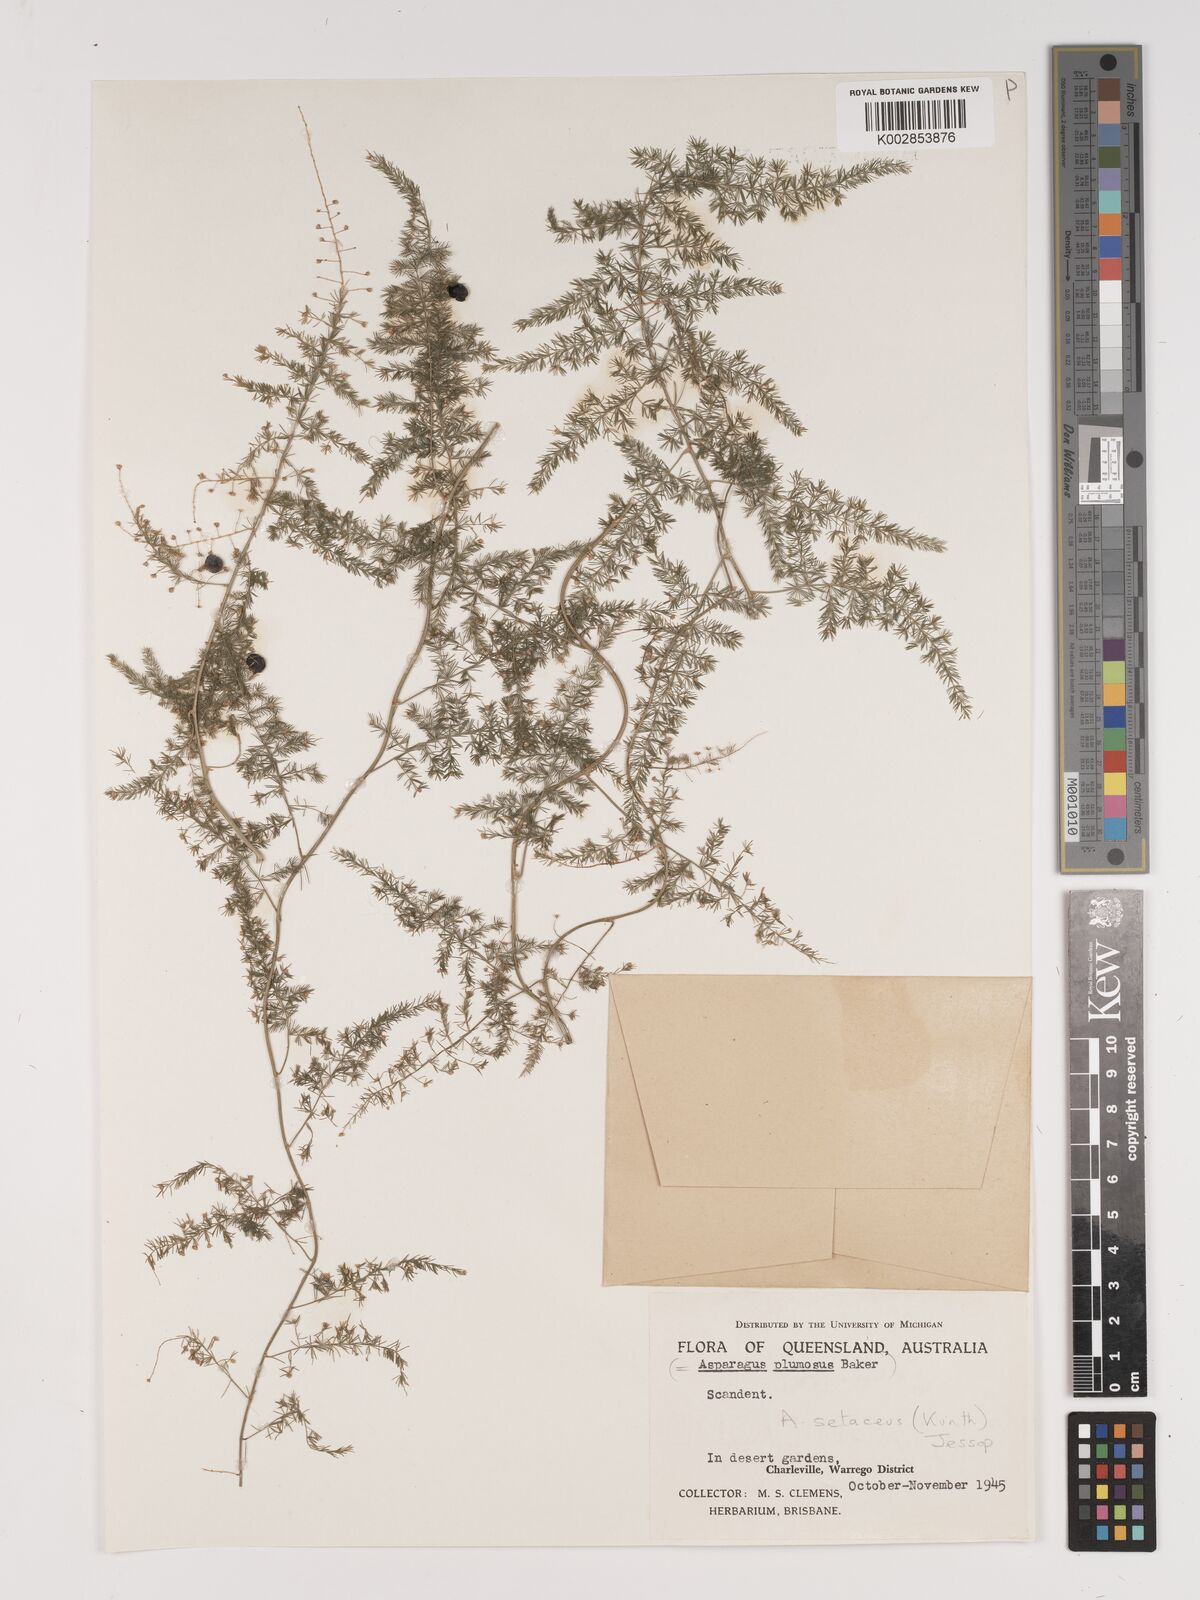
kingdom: Plantae
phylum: Tracheophyta
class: Liliopsida
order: Asparagales
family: Asparagaceae
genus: Asparagus
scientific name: Asparagus setaceus
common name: Common asparagus fern
